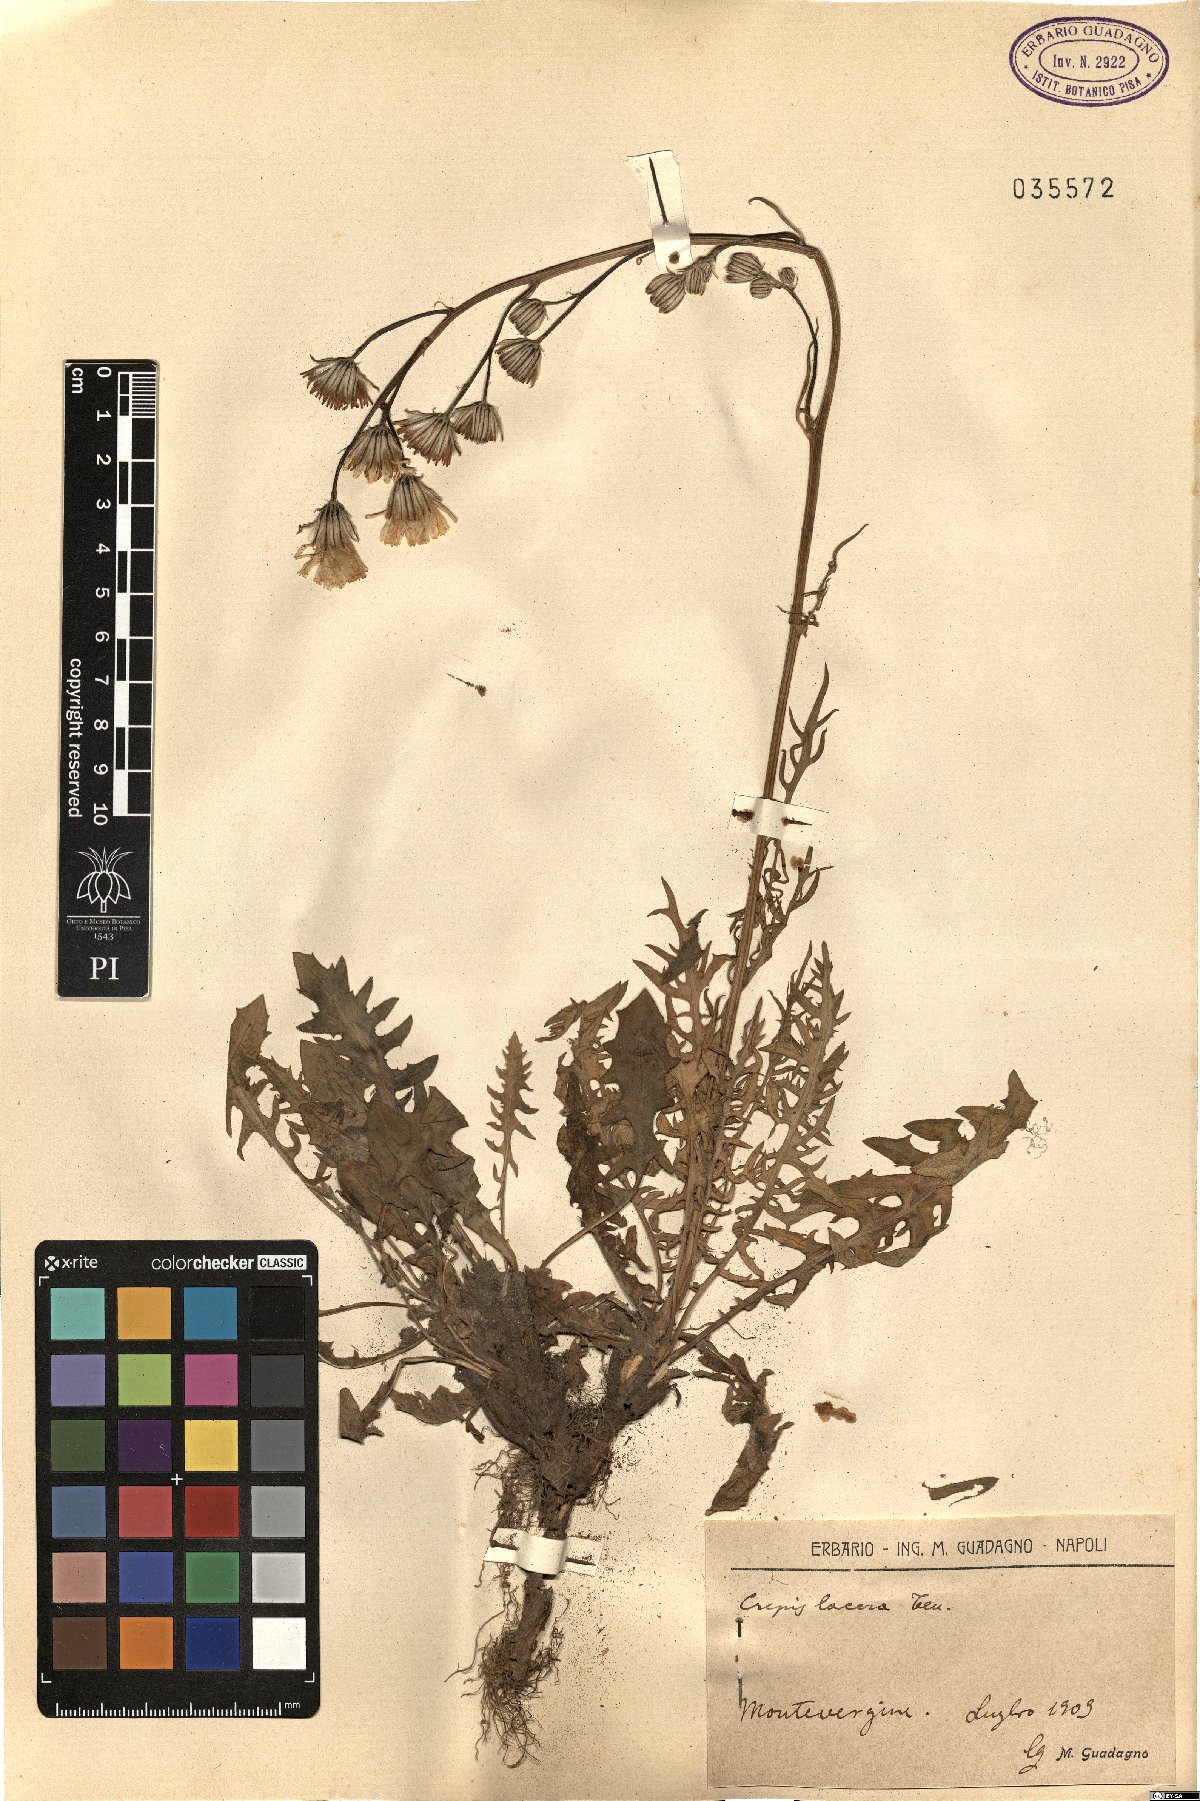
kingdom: Plantae
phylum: Tracheophyta
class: Magnoliopsida
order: Asterales
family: Asteraceae
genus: Crepis
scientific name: Crepis lacera
